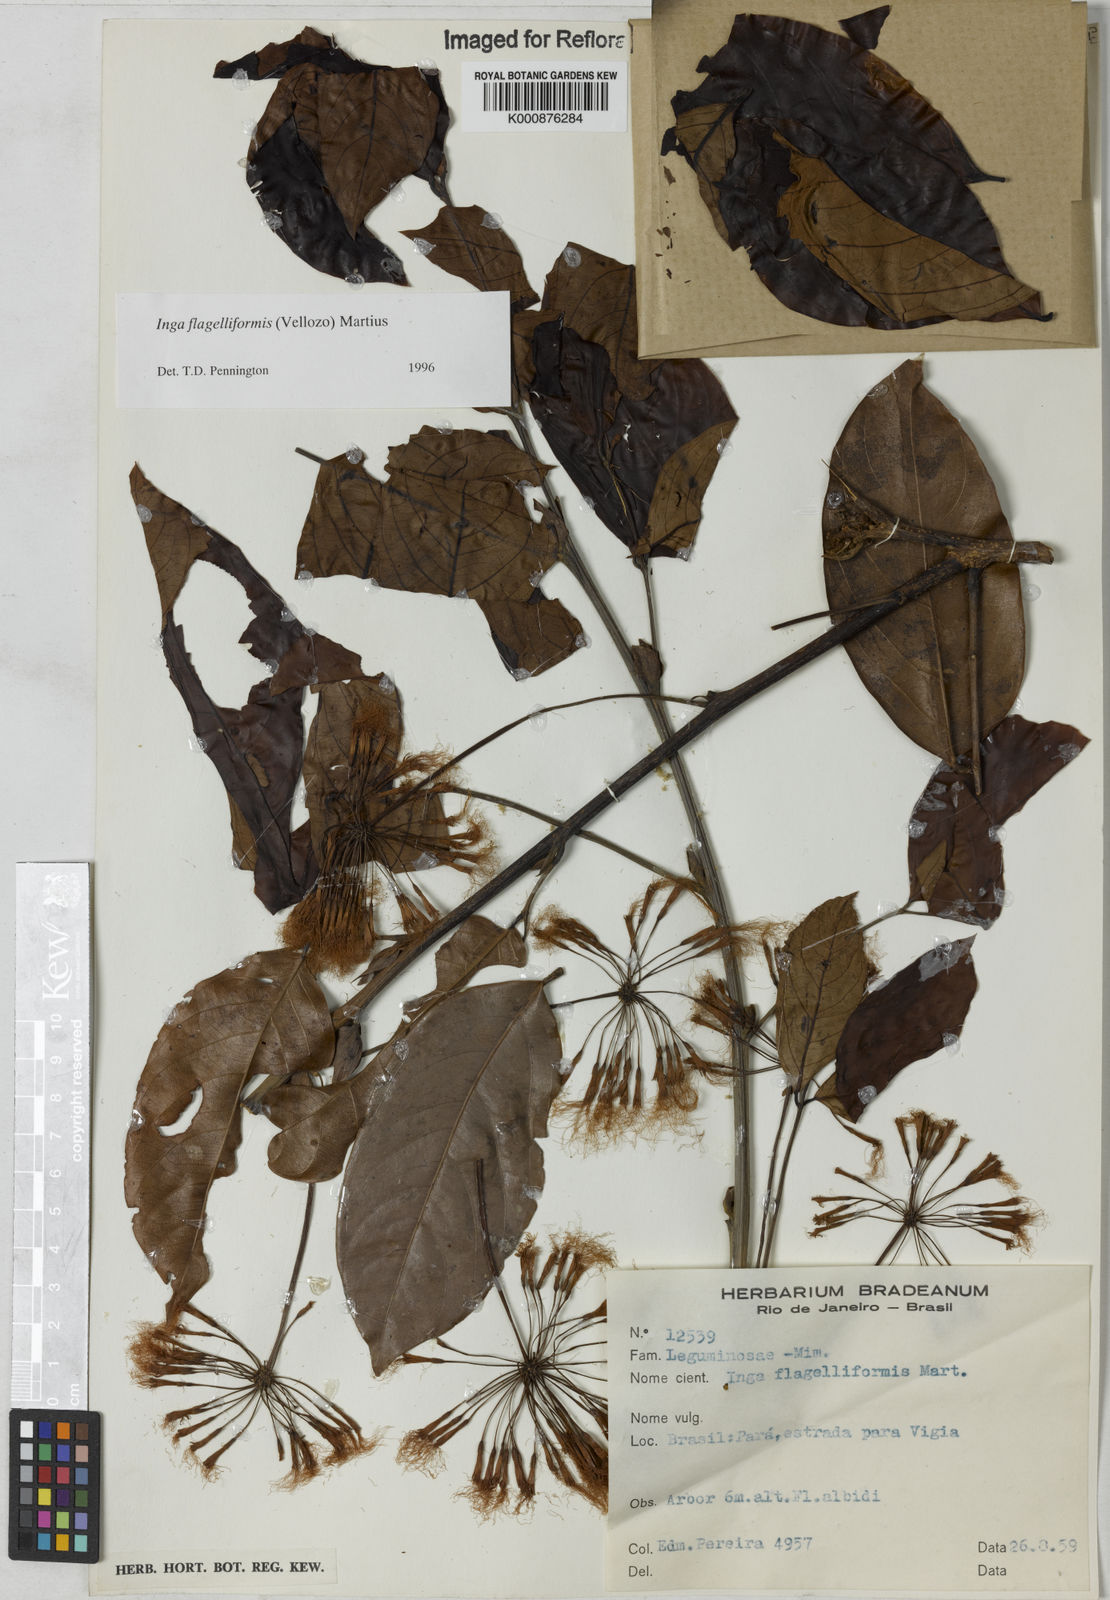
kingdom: Plantae
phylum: Tracheophyta
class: Magnoliopsida
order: Fabales
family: Fabaceae
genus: Inga
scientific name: Inga flagelliformis
